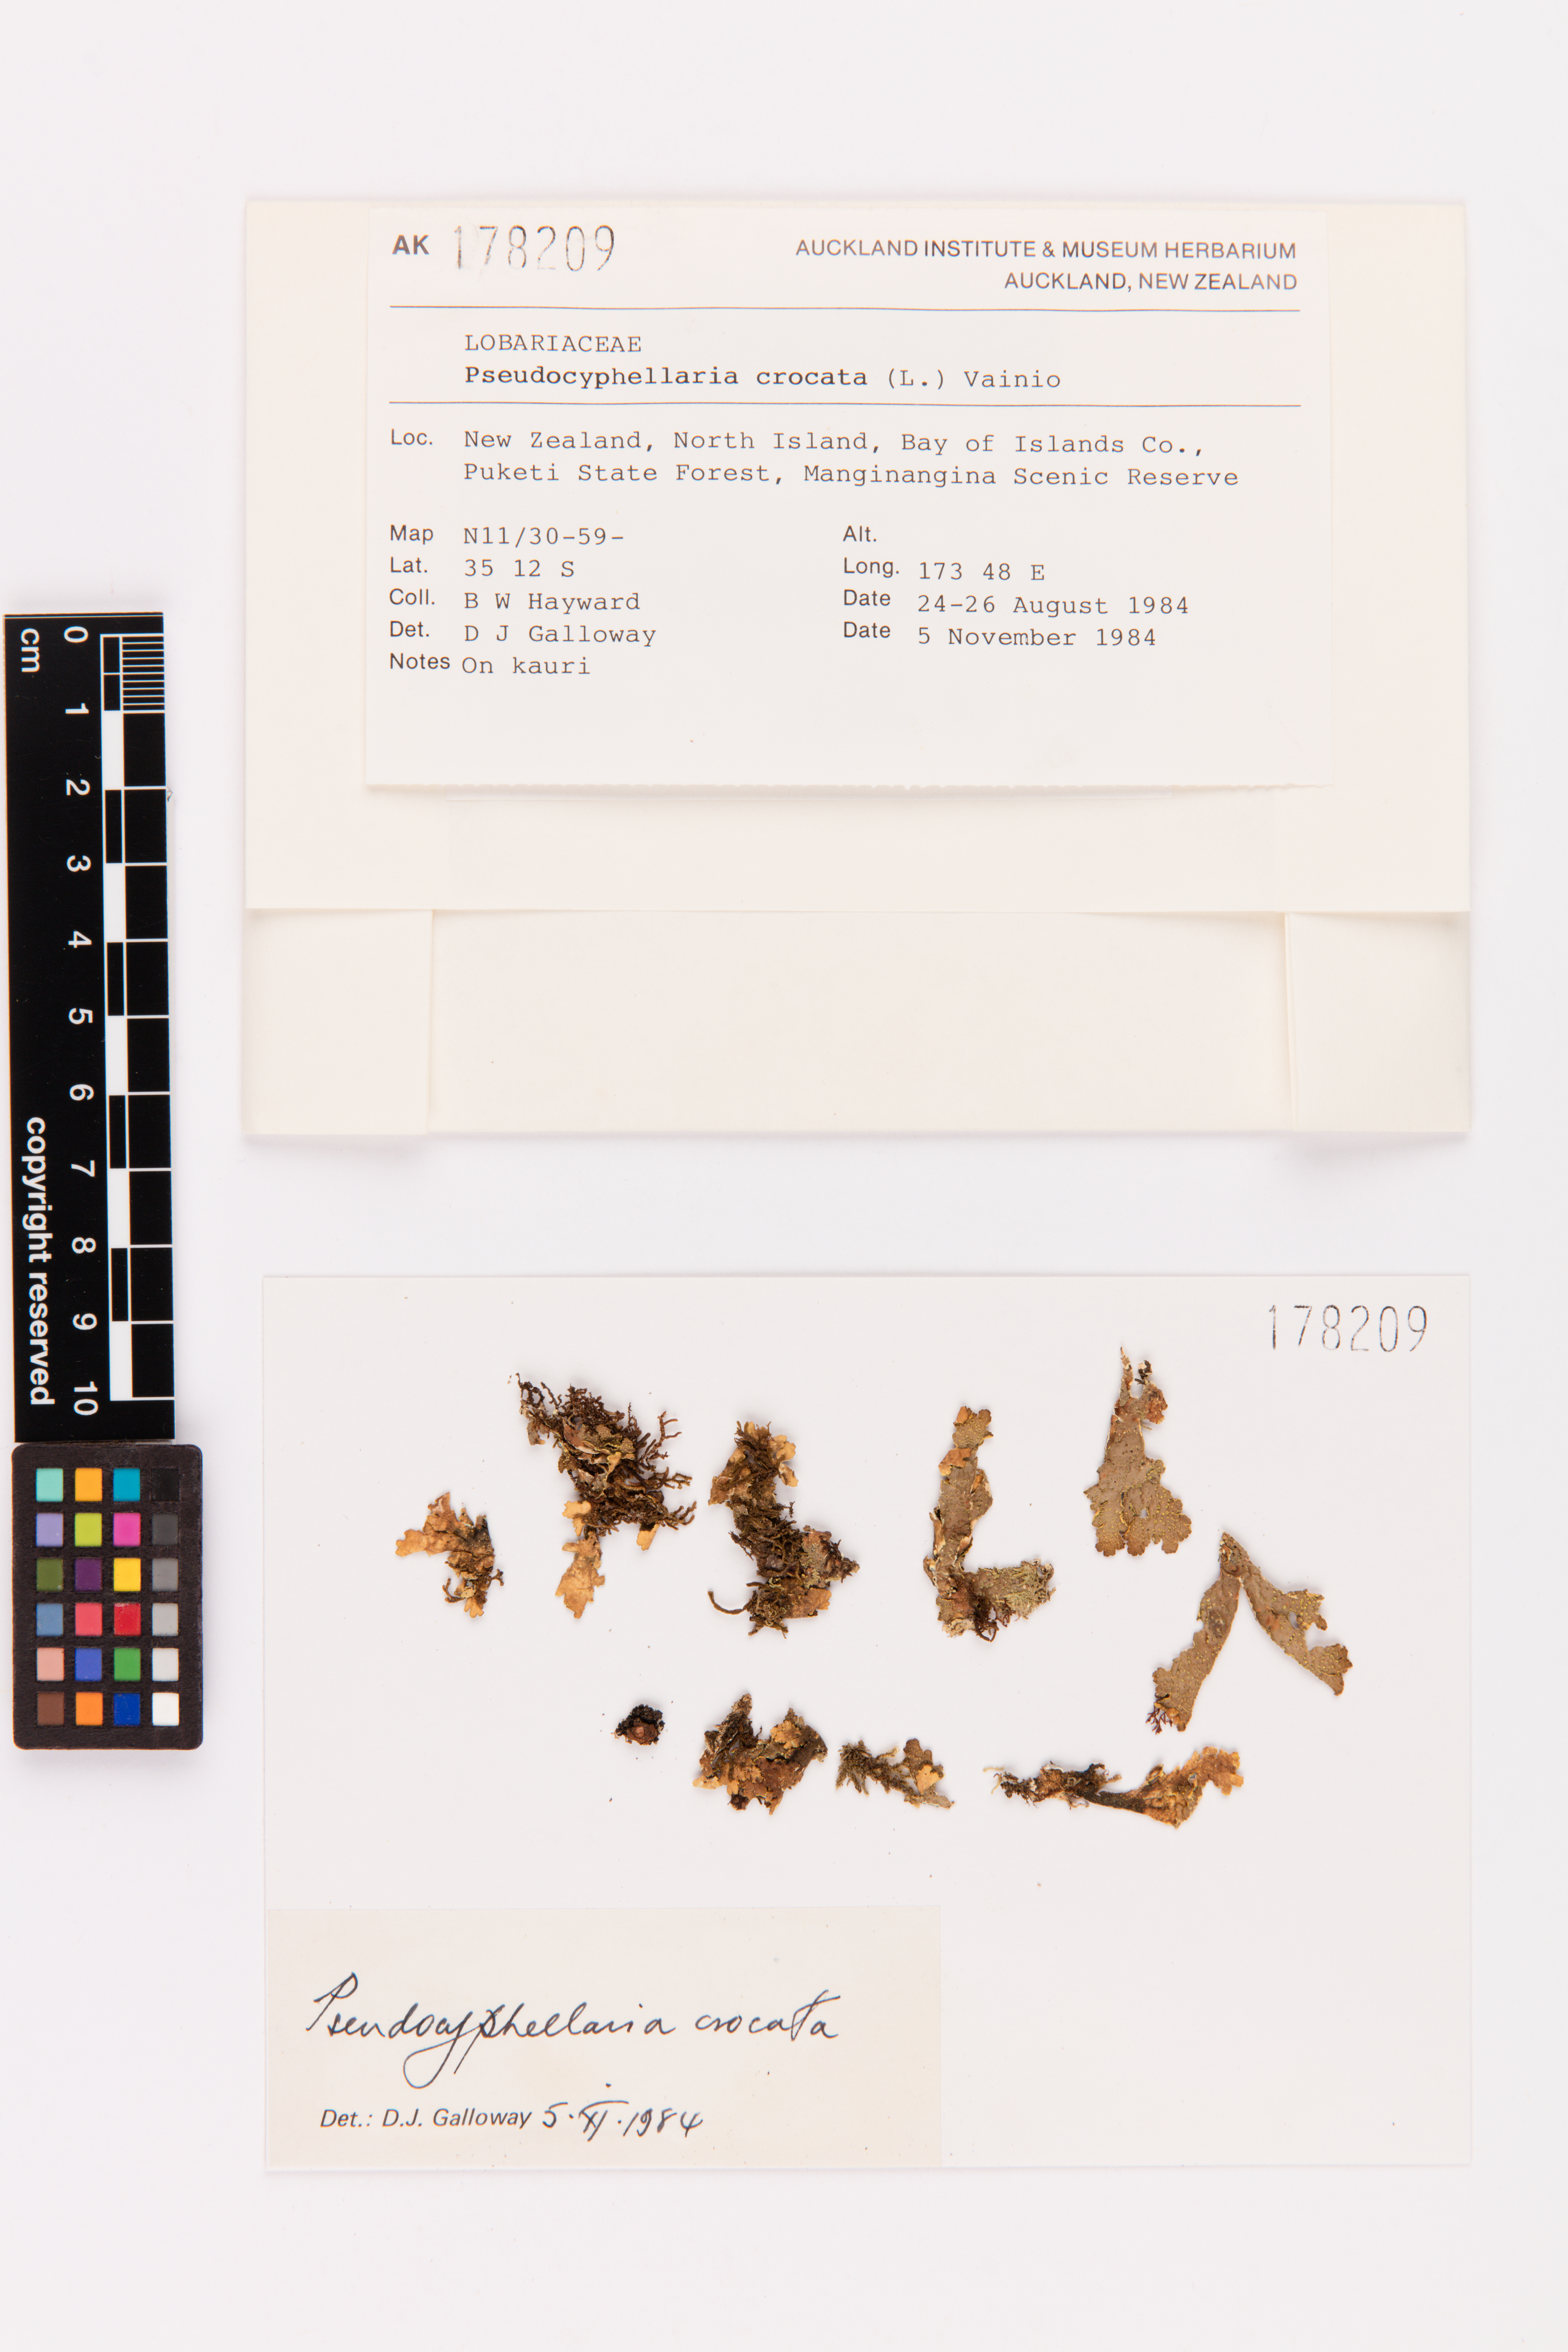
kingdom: Fungi
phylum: Ascomycota
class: Lecanoromycetes
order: Peltigerales
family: Lobariaceae
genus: Pseudocyphellaria
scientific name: Pseudocyphellaria crocata
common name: Golden specklebelly
